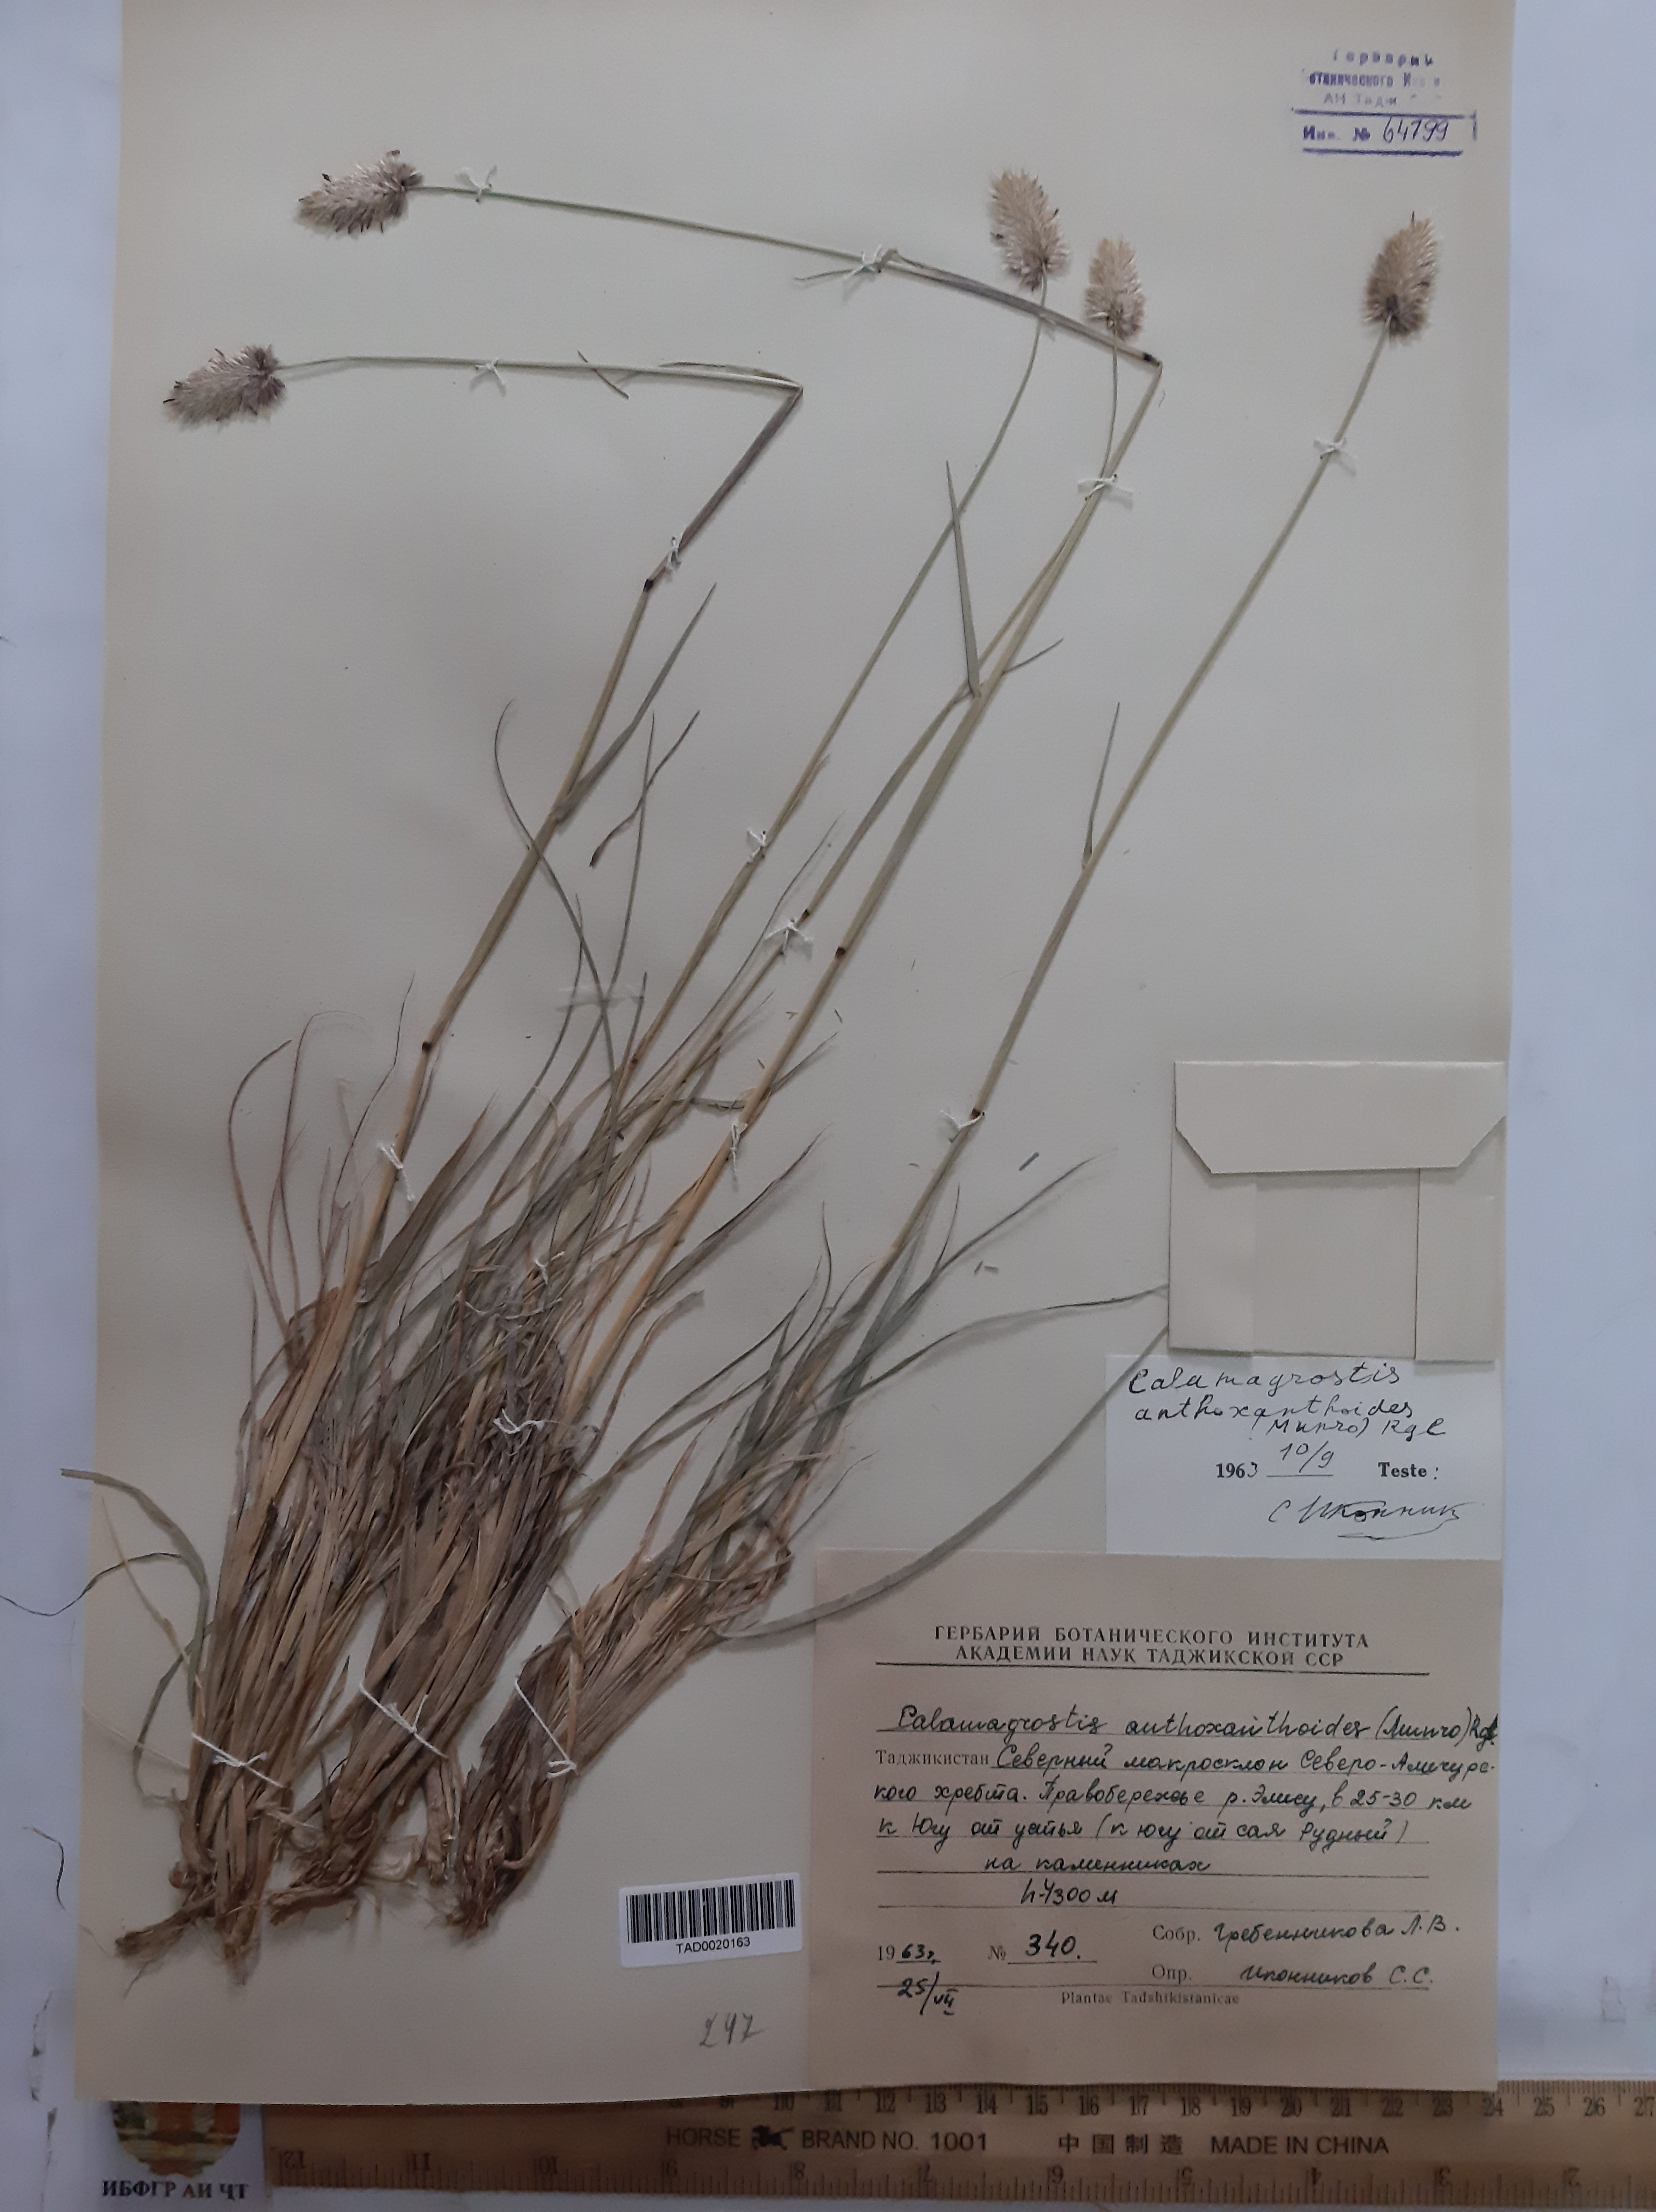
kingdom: Plantae
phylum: Tracheophyta
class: Liliopsida
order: Poales
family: Poaceae
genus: Calamagrostis
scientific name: Calamagrostis anthoxanthoides
